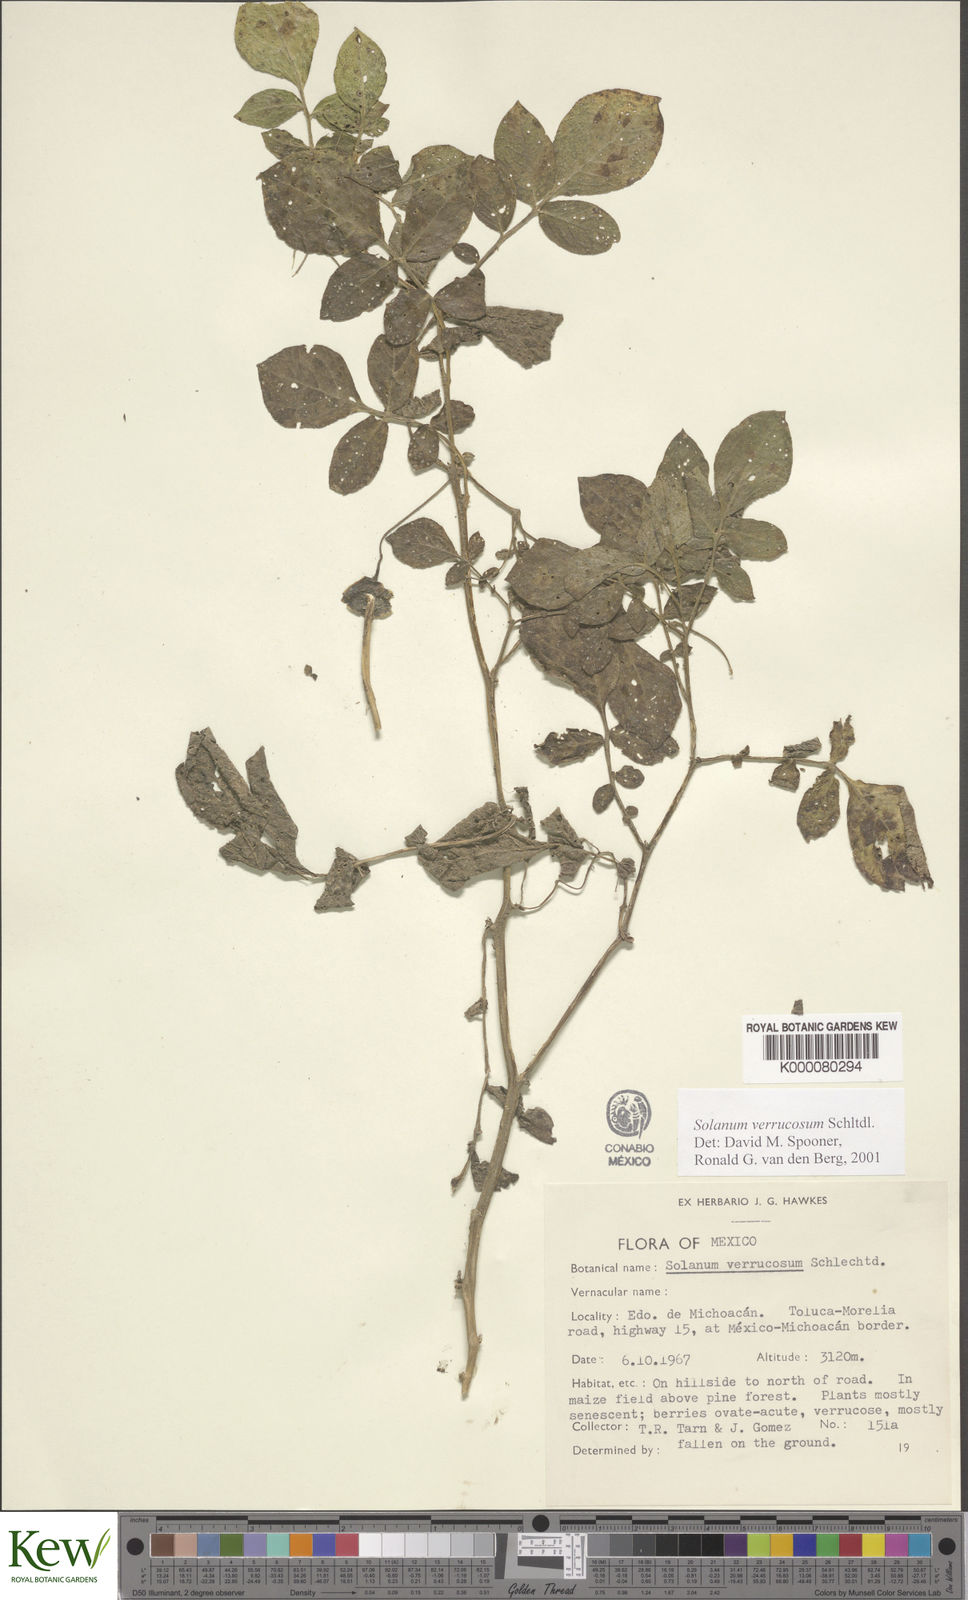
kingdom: Plantae
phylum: Tracheophyta
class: Magnoliopsida
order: Solanales
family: Solanaceae
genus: Solanum
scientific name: Solanum verrucosum
